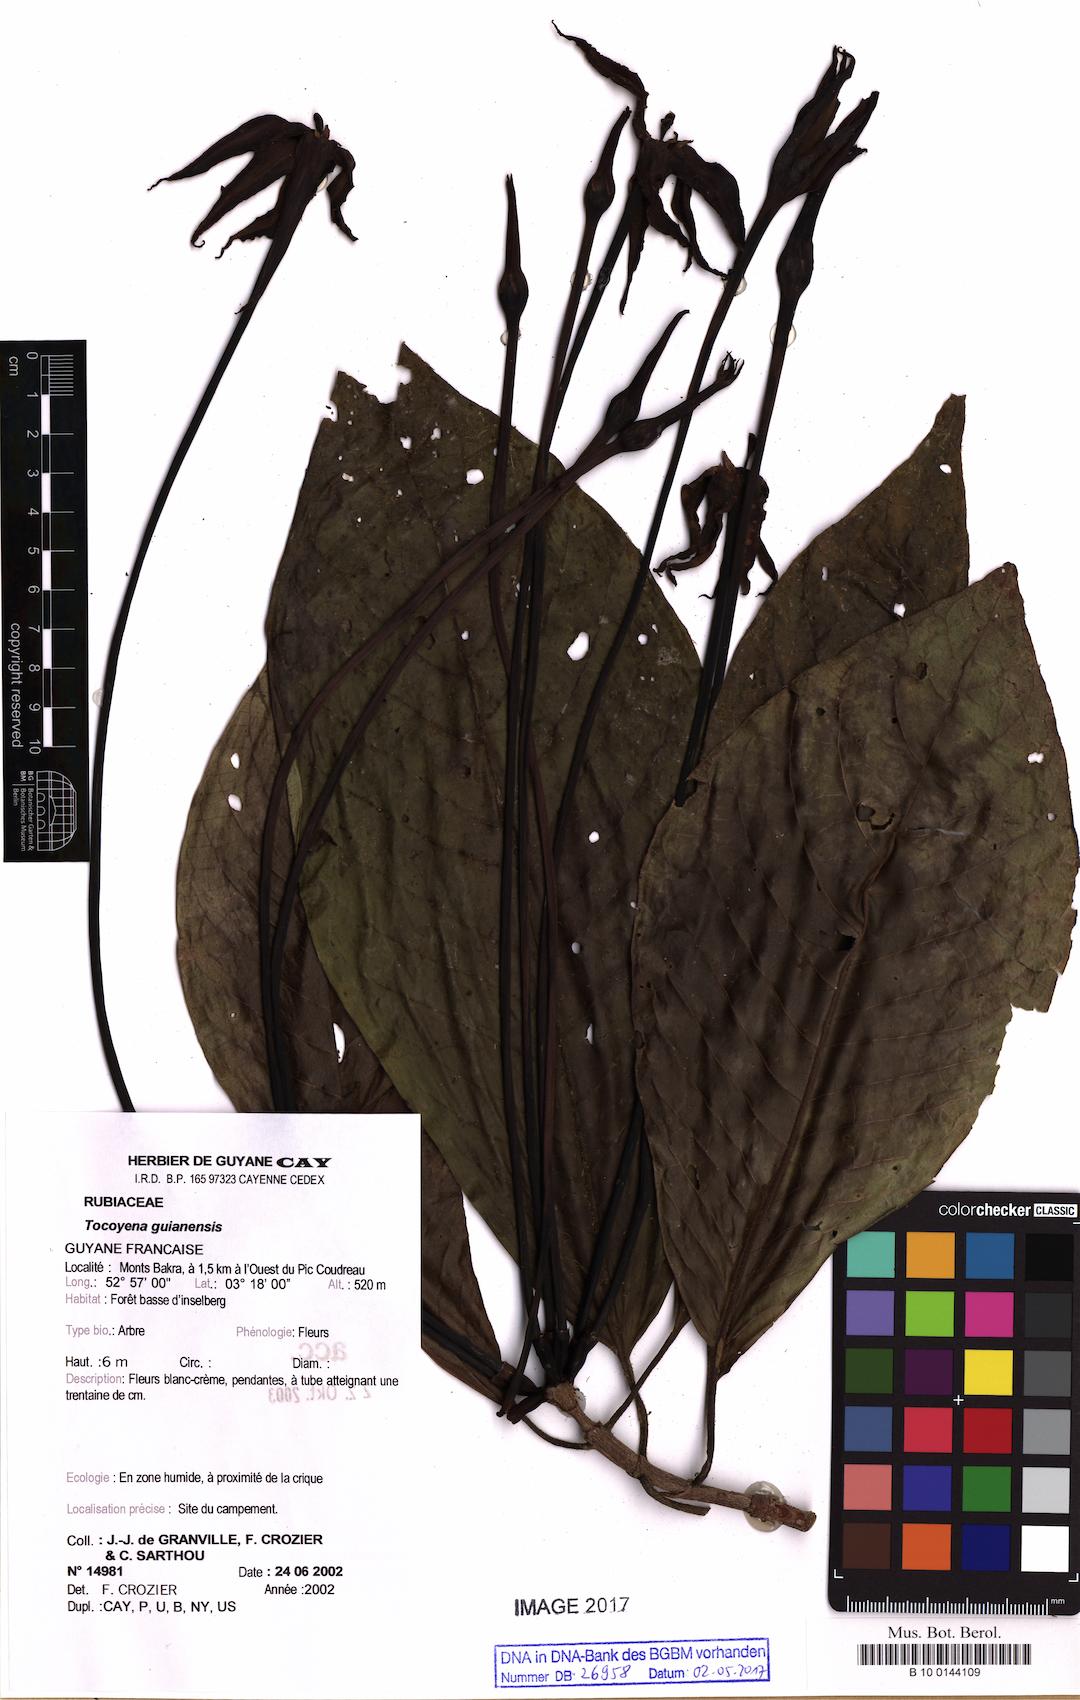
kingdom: Plantae
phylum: Tracheophyta
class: Magnoliopsida
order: Gentianales
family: Rubiaceae
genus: Tocoyena
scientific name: Tocoyena guianensis
